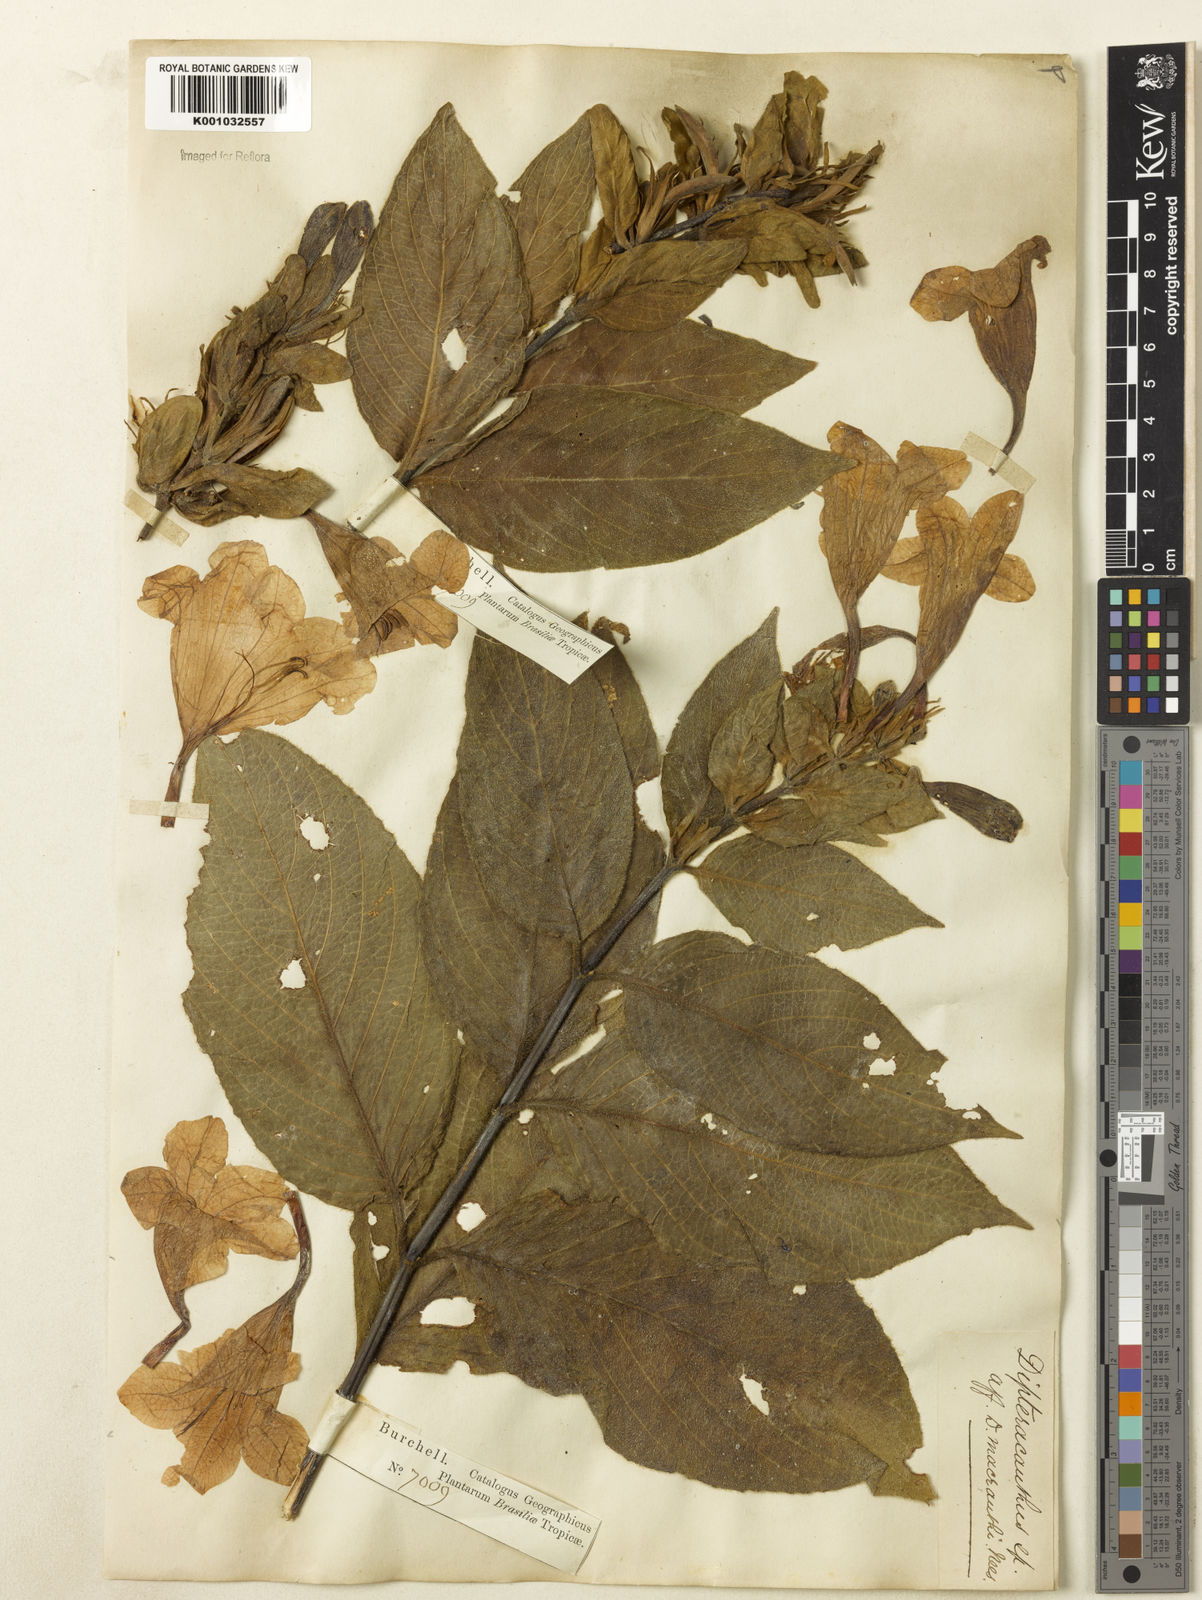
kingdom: Plantae
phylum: Tracheophyta
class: Magnoliopsida
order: Lamiales
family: Acanthaceae
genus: Ruellia
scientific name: Ruellia
